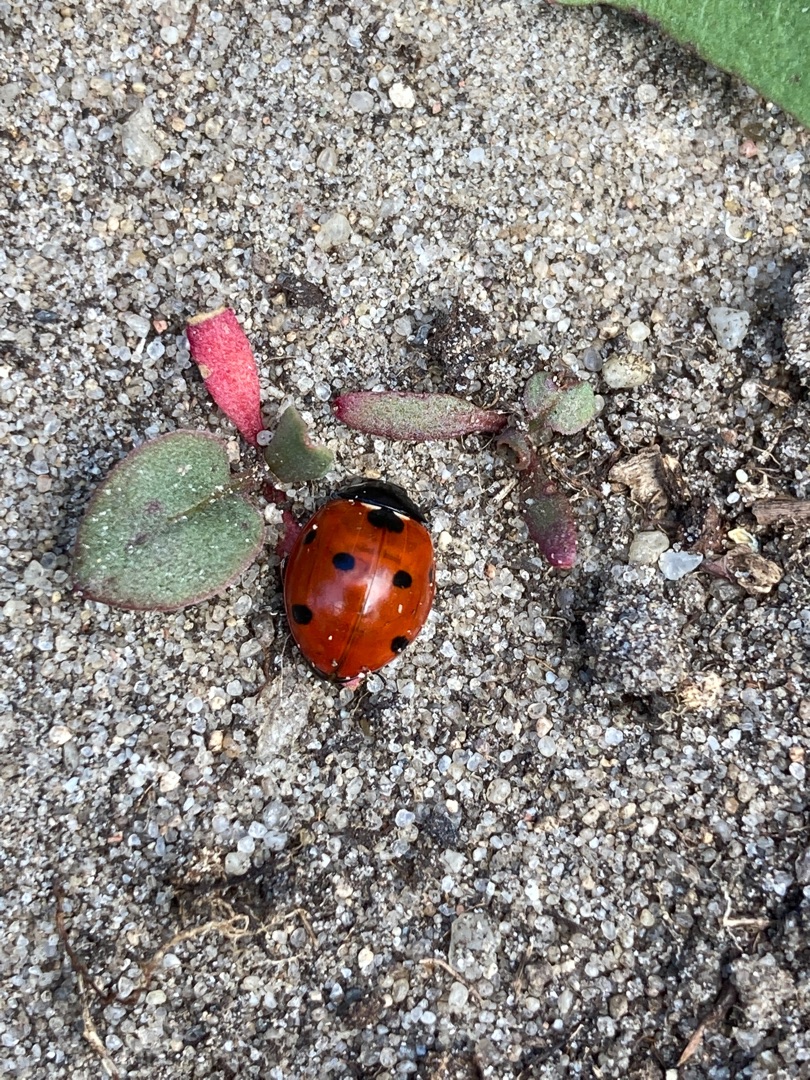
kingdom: Animalia
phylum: Arthropoda
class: Insecta
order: Coleoptera
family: Coccinellidae
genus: Coccinella
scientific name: Coccinella septempunctata
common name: Syvplettet mariehøne
